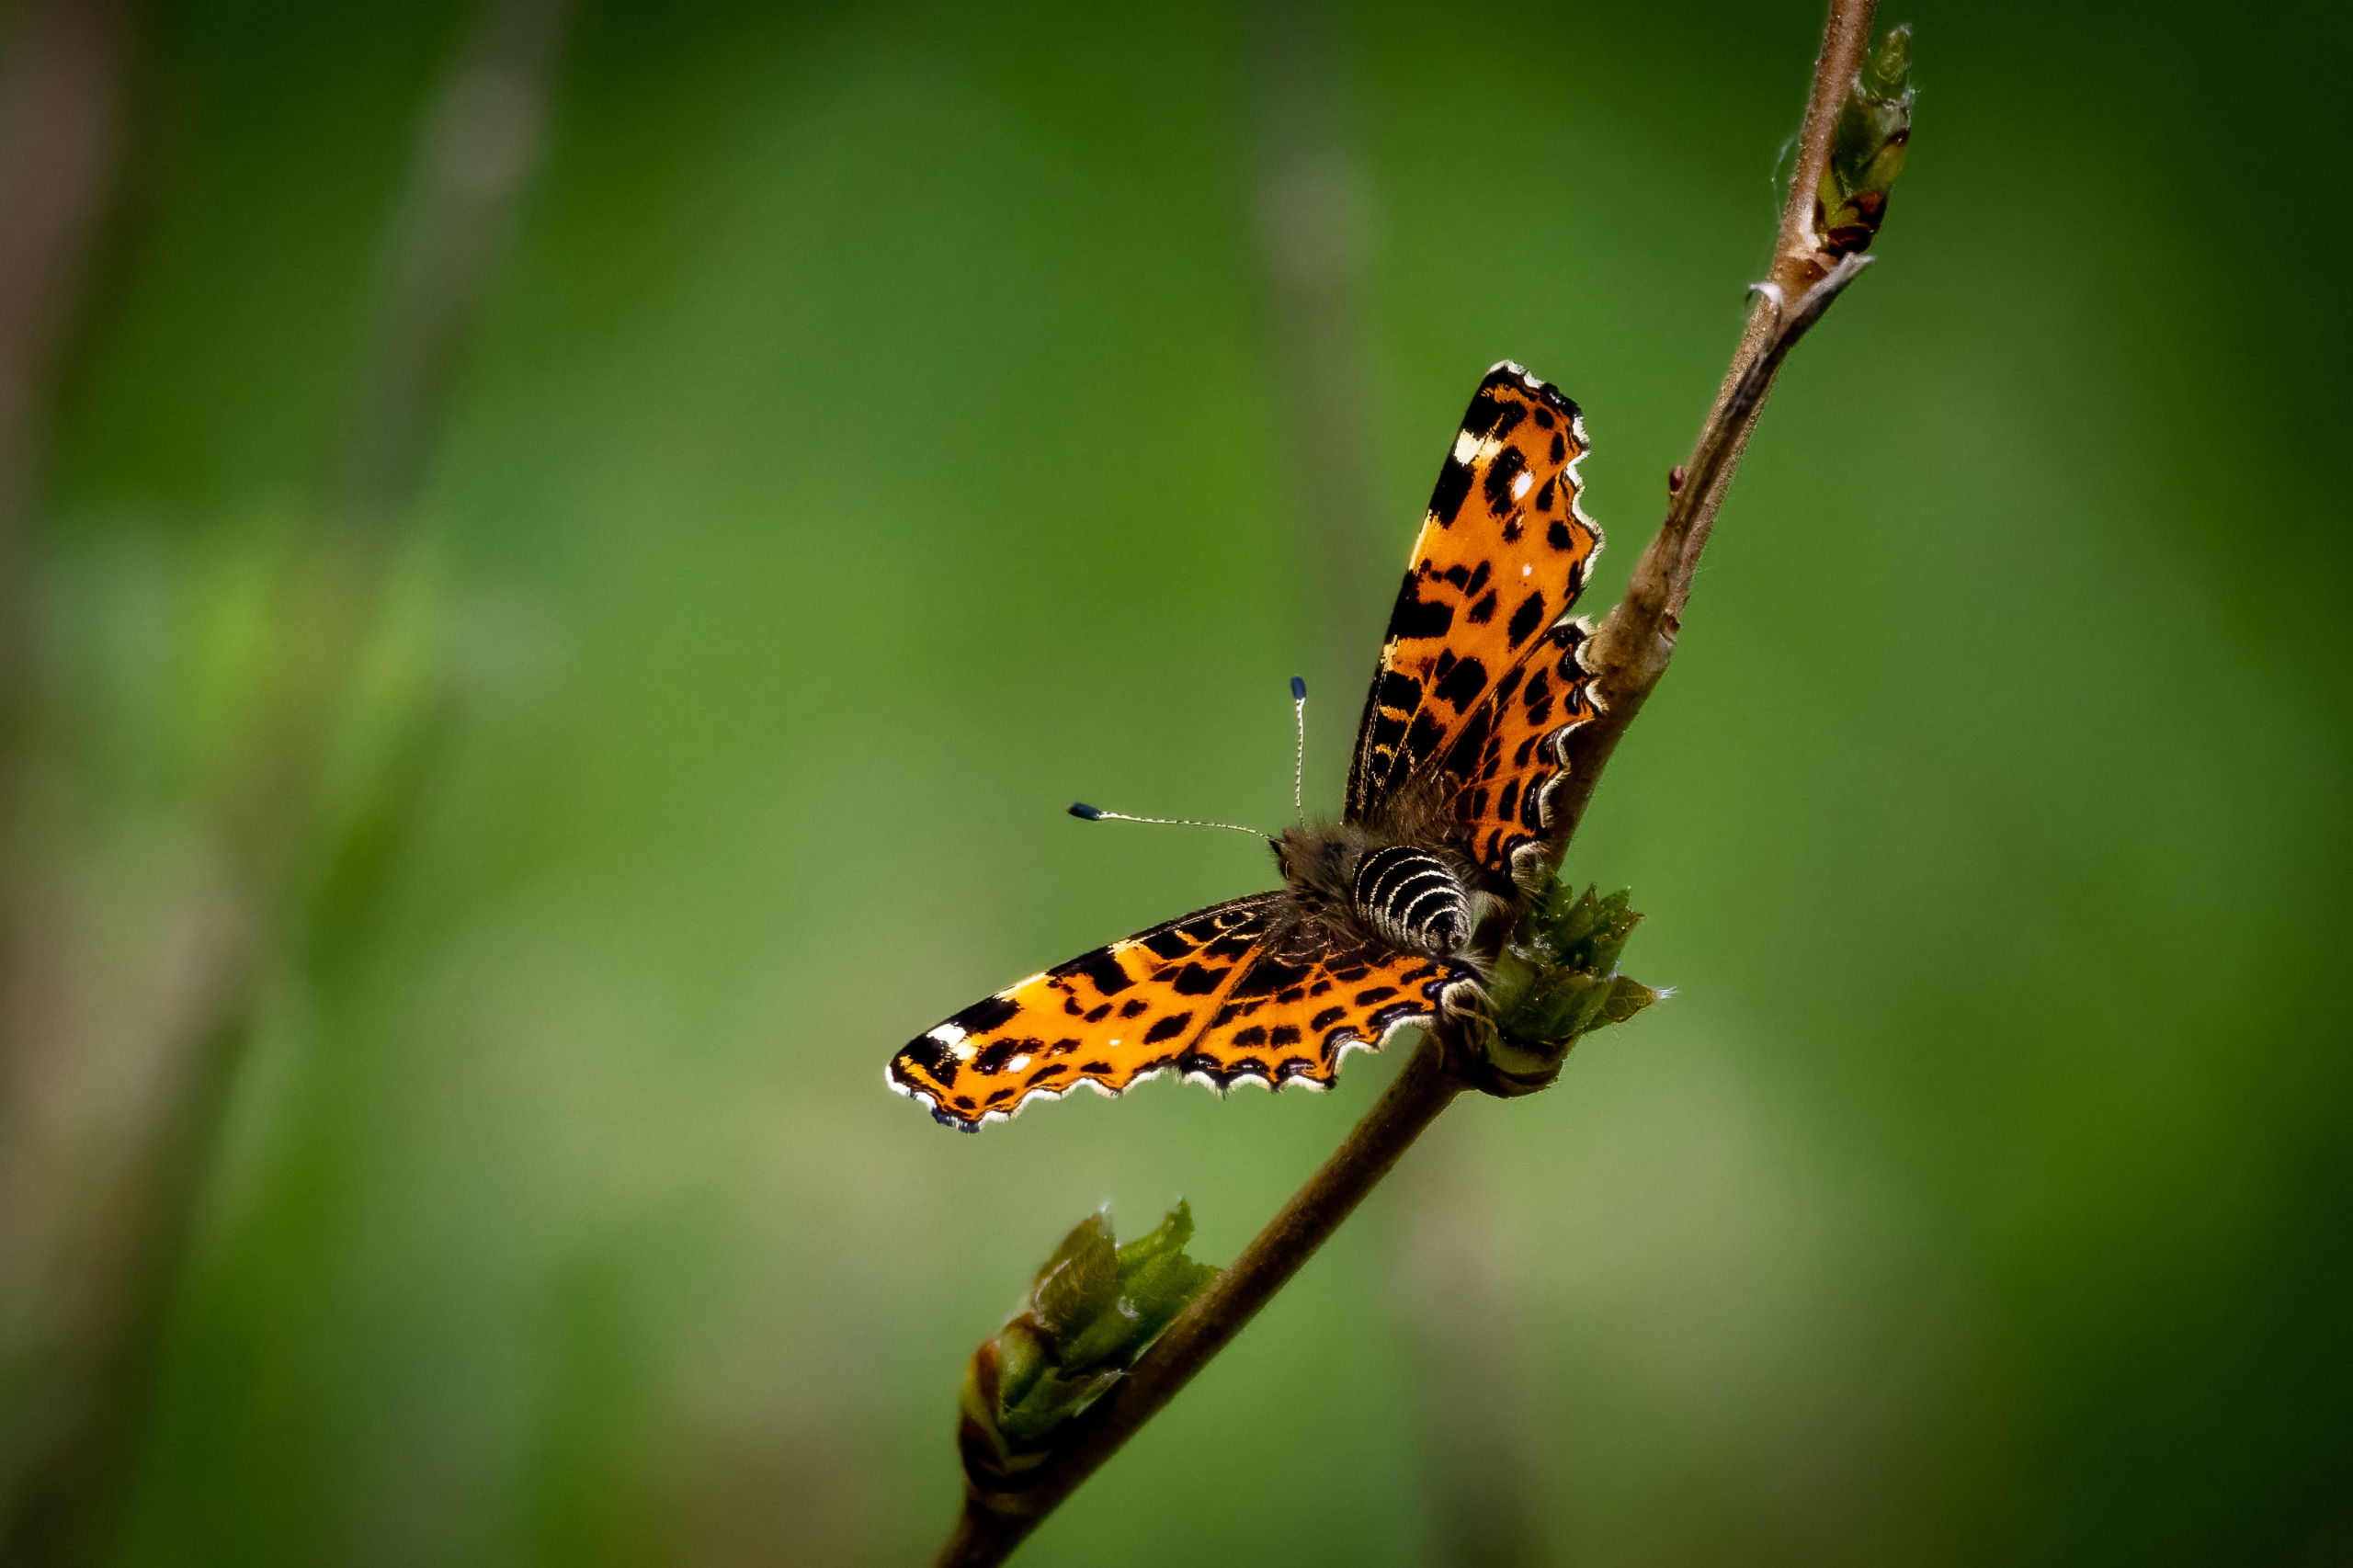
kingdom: Animalia
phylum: Arthropoda
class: Insecta
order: Lepidoptera
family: Nymphalidae
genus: Araschnia
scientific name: Araschnia levana
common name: Nældesommerfugl
